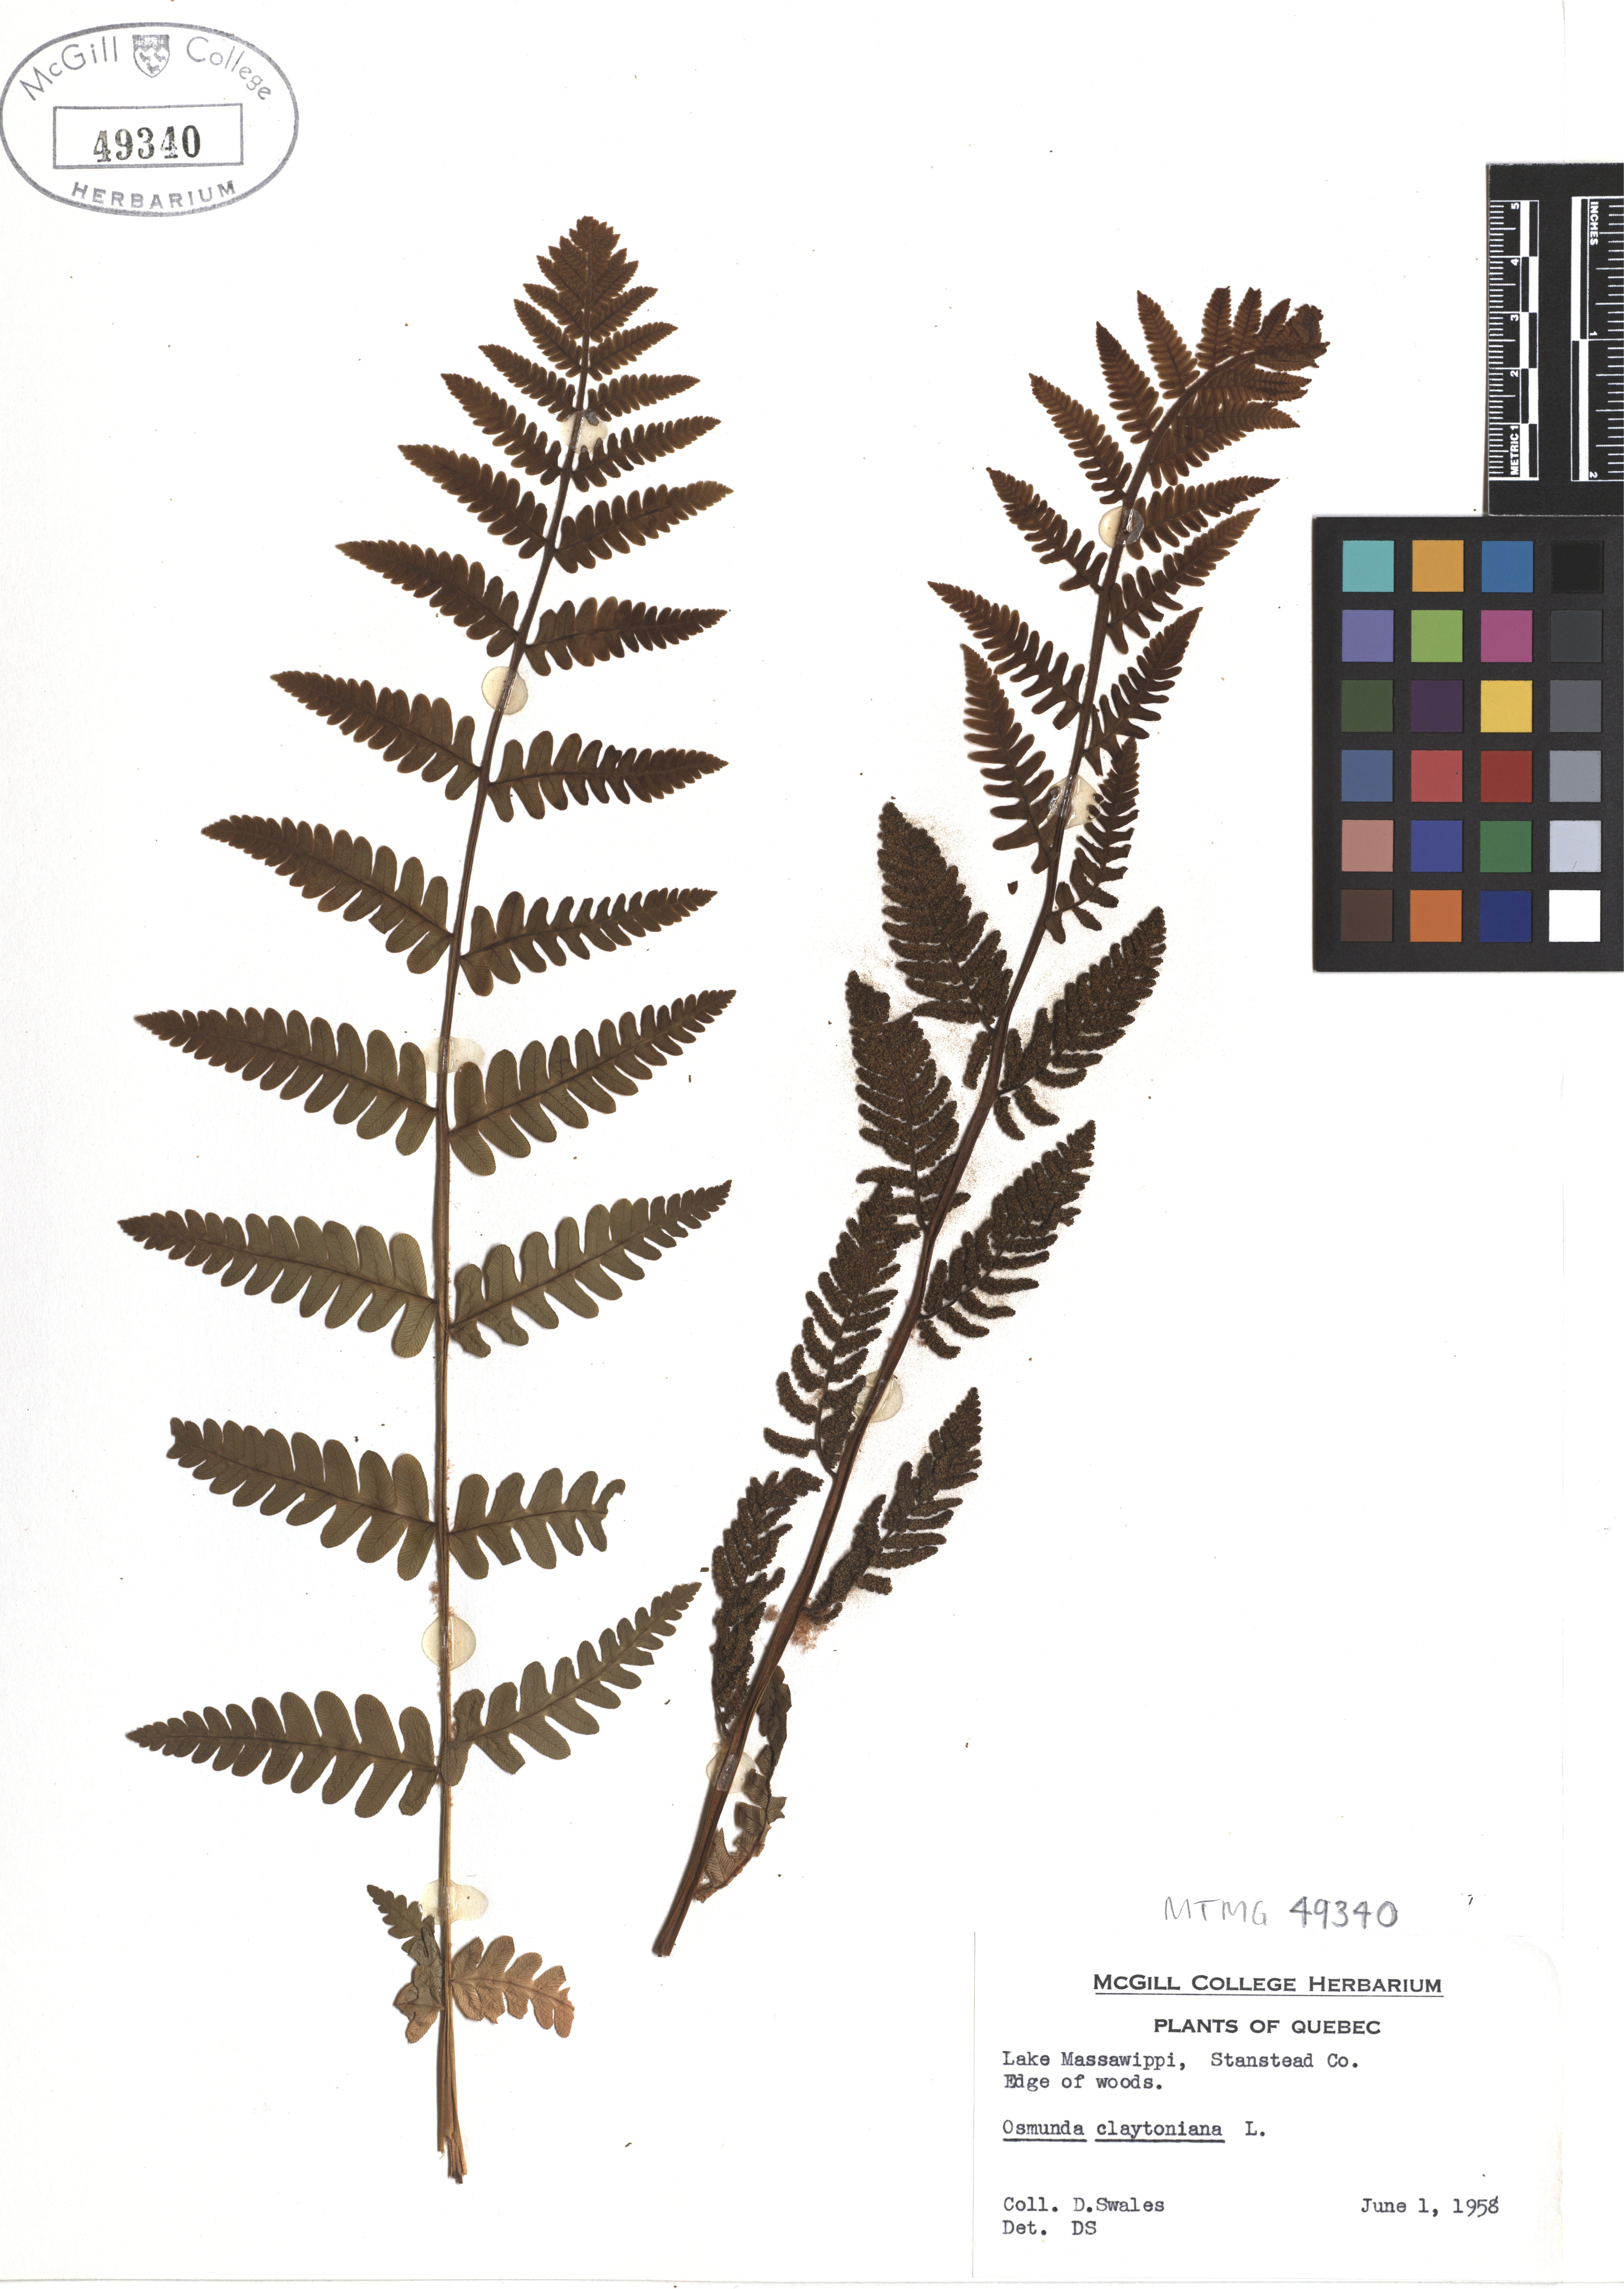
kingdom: Plantae
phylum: Tracheophyta
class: Polypodiopsida
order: Osmundales
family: Osmundaceae
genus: Claytosmunda
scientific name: Claytosmunda claytoniana
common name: Clayton's fern
